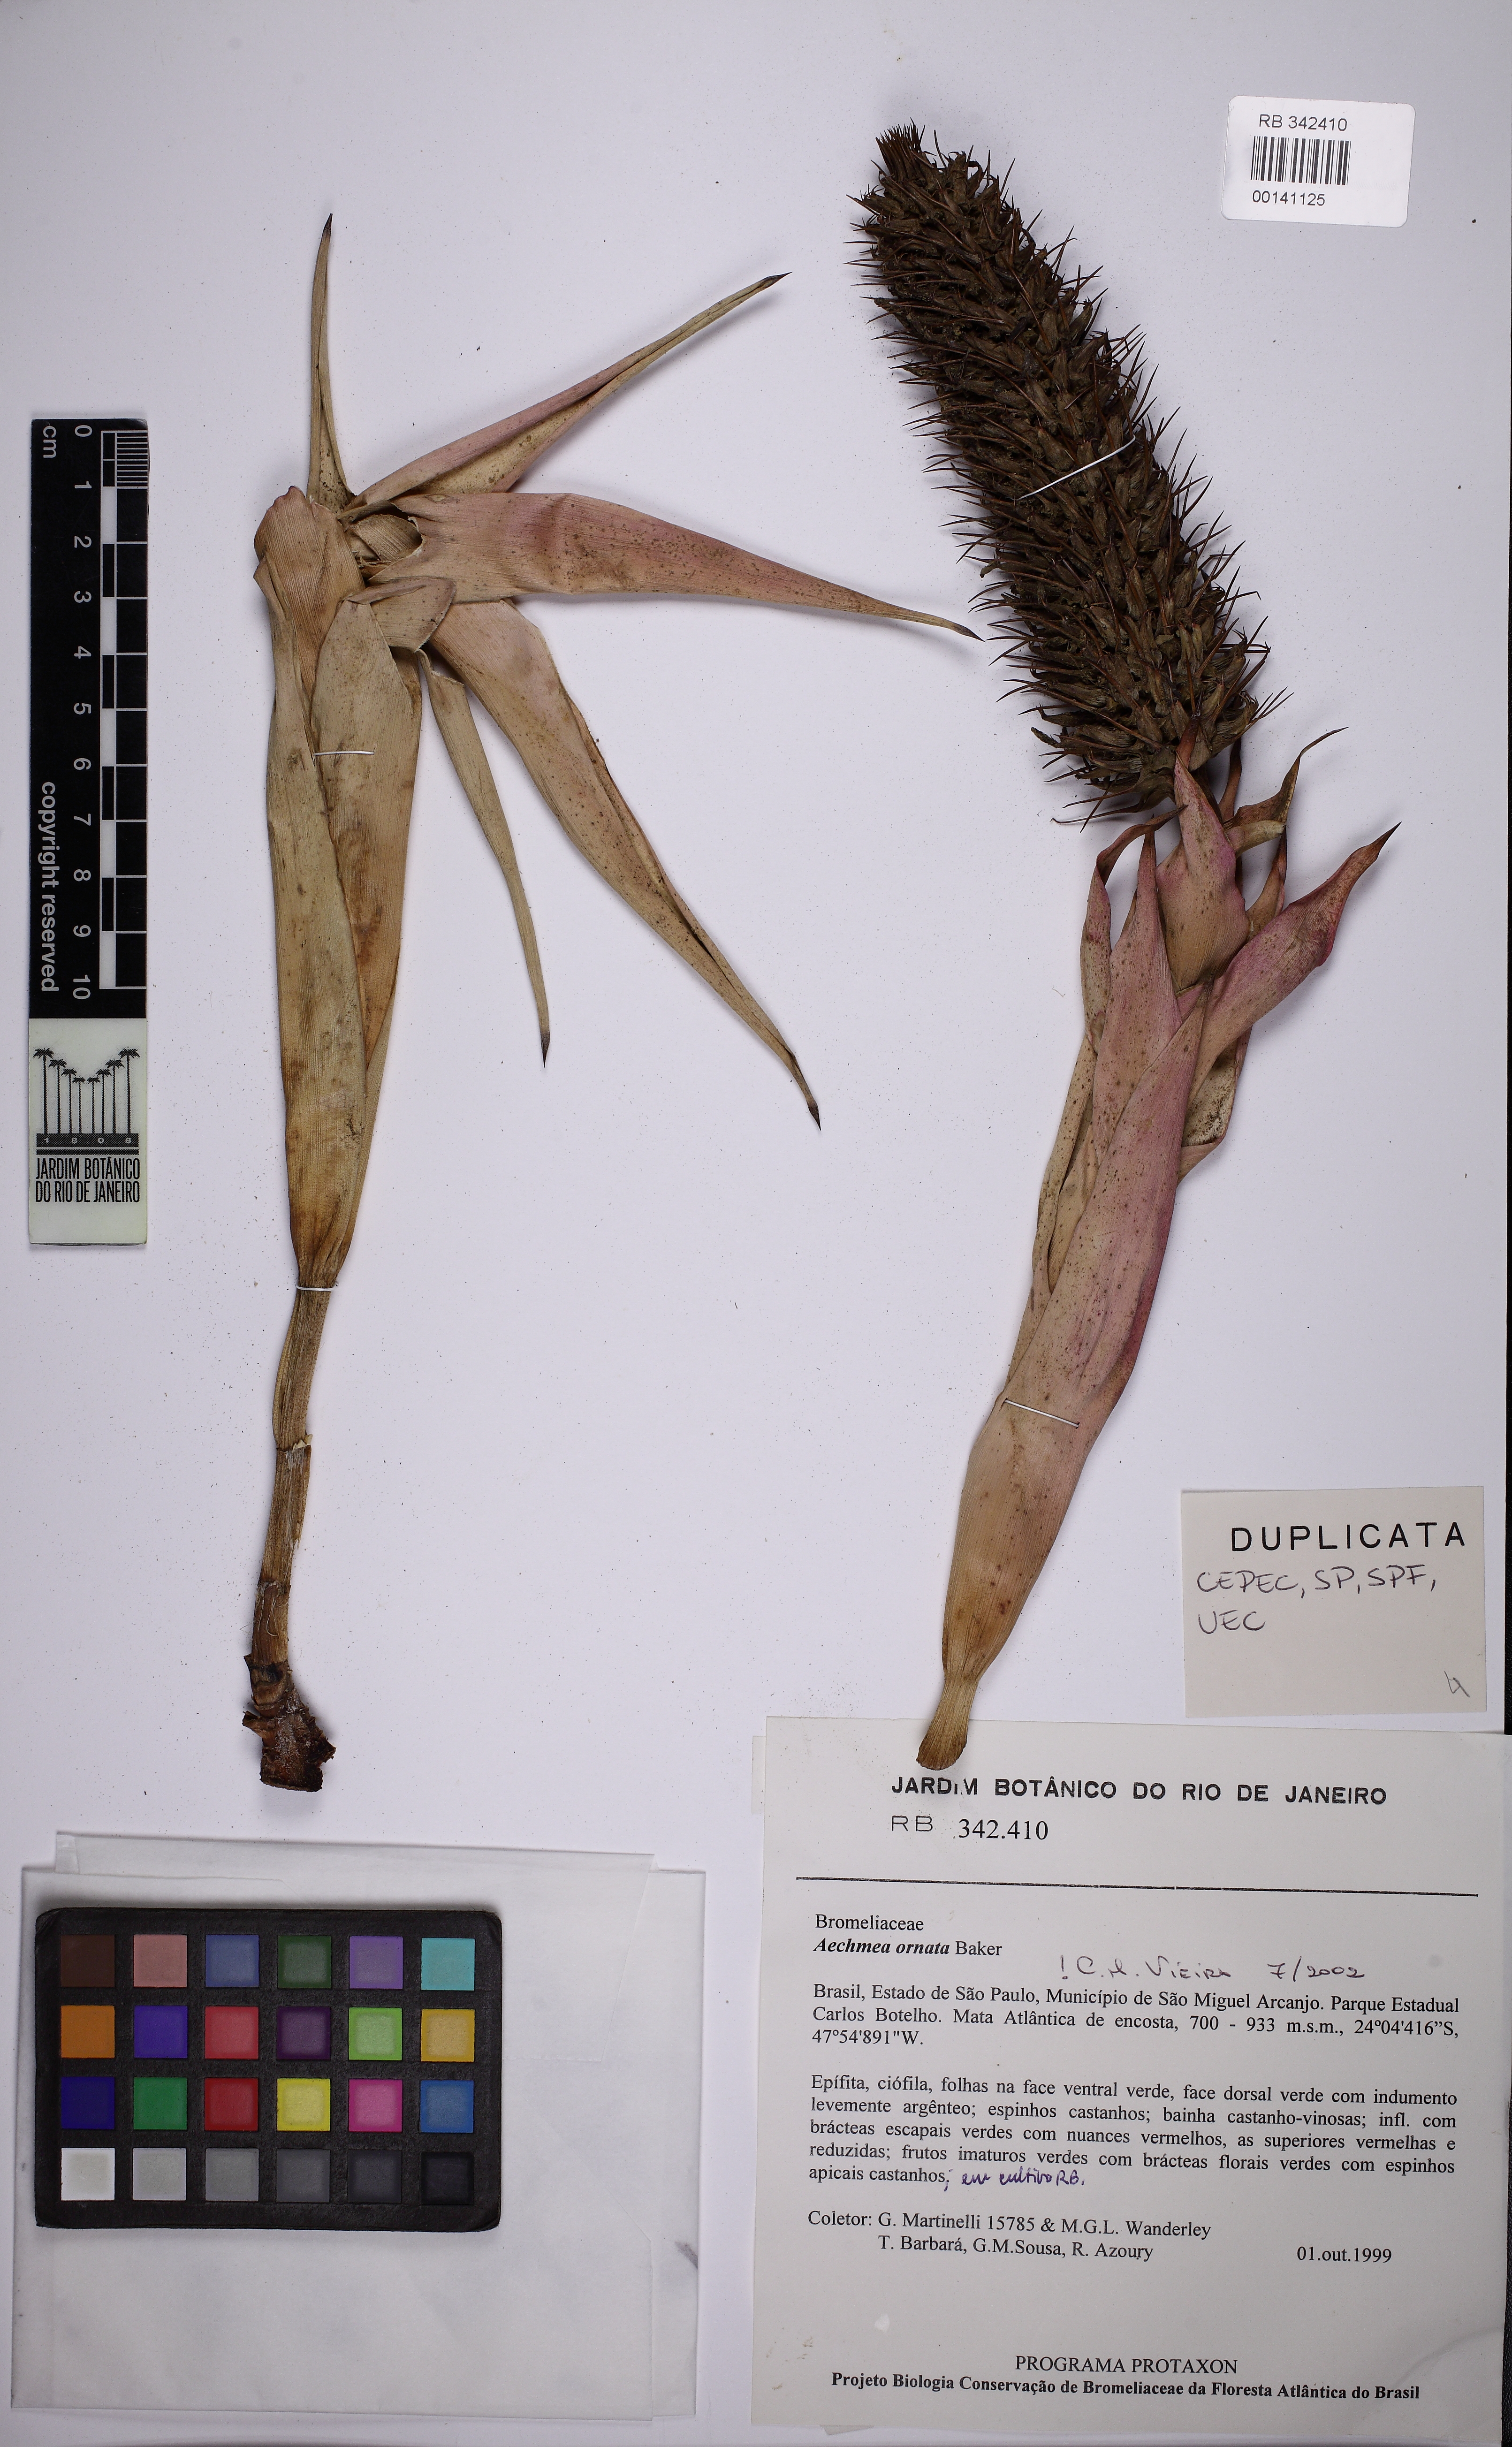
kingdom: Plantae
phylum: Tracheophyta
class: Liliopsida
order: Poales
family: Bromeliaceae
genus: Aechmea
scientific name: Aechmea ornata
